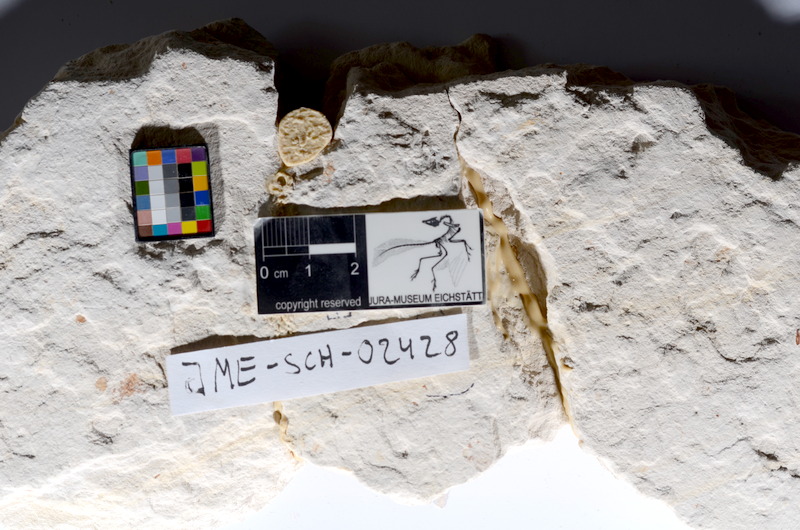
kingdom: Animalia
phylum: Chordata
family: Ascalaboidae
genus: Tharsis
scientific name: Tharsis dubius
